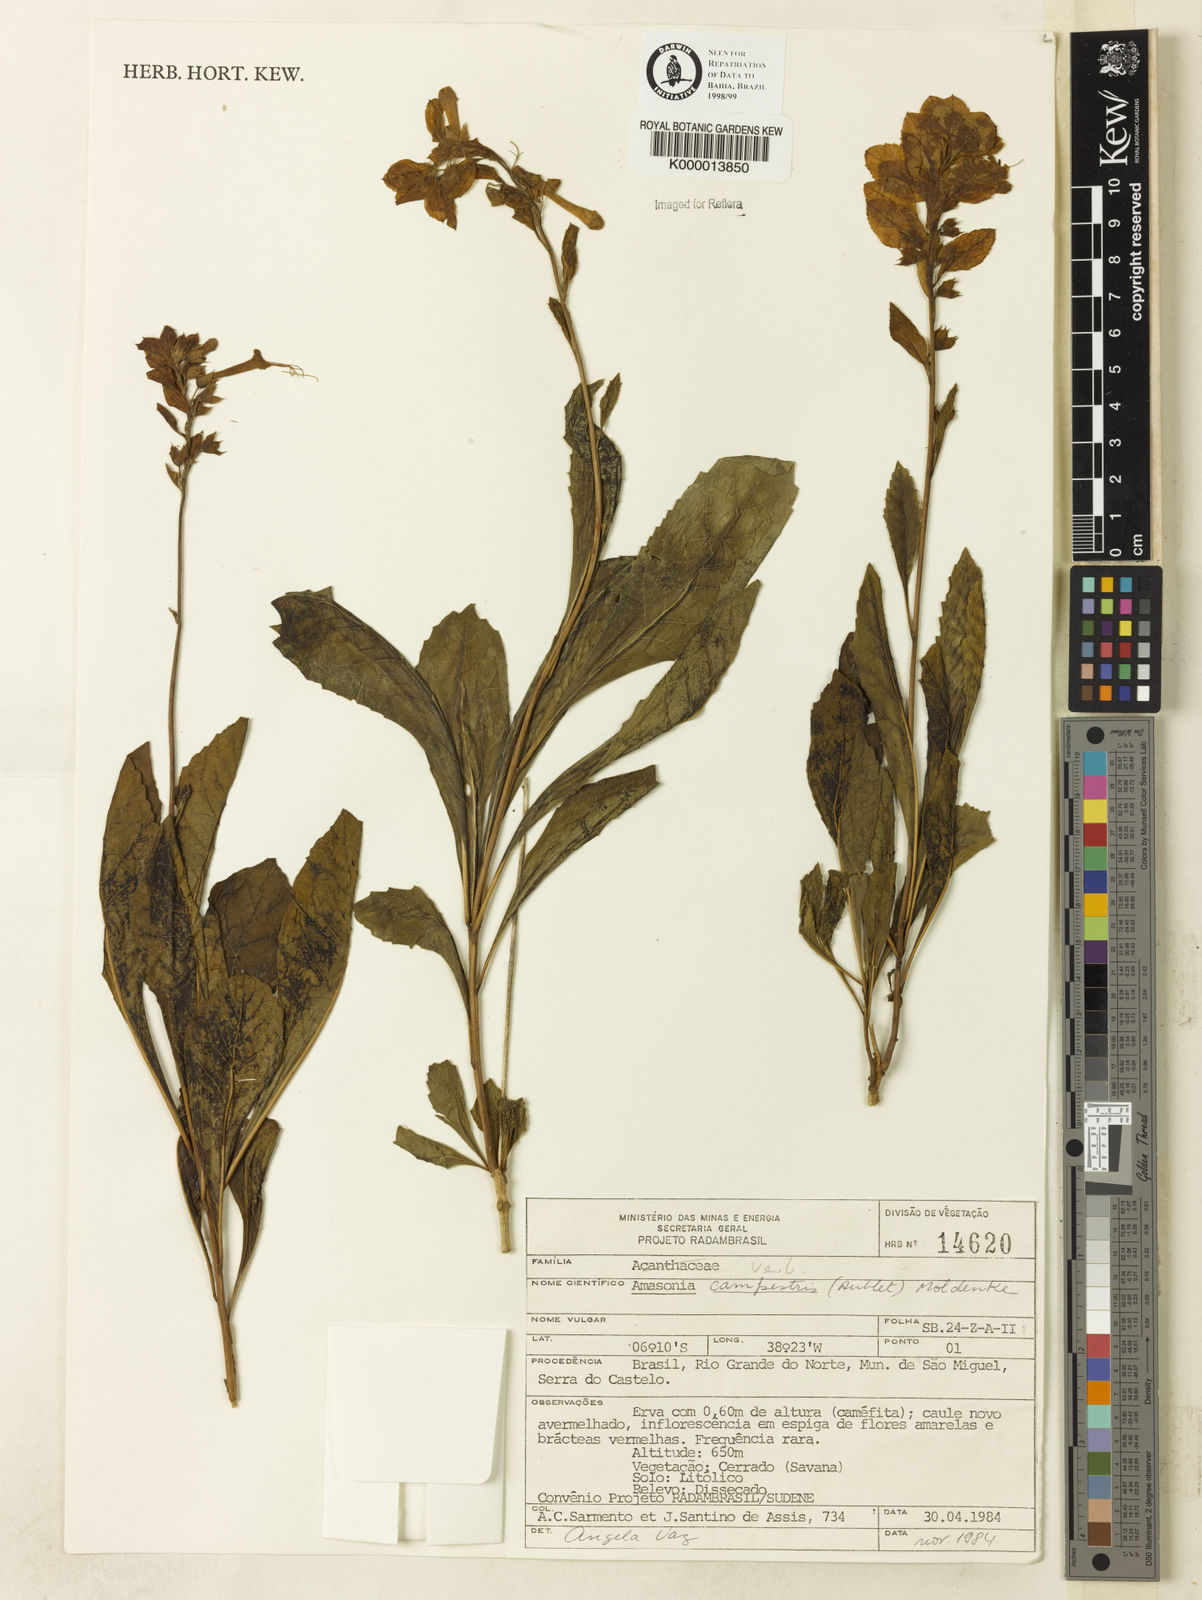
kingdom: Plantae
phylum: Tracheophyta
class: Magnoliopsida
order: Lamiales
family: Lamiaceae
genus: Amasonia
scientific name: Amasonia campestris
